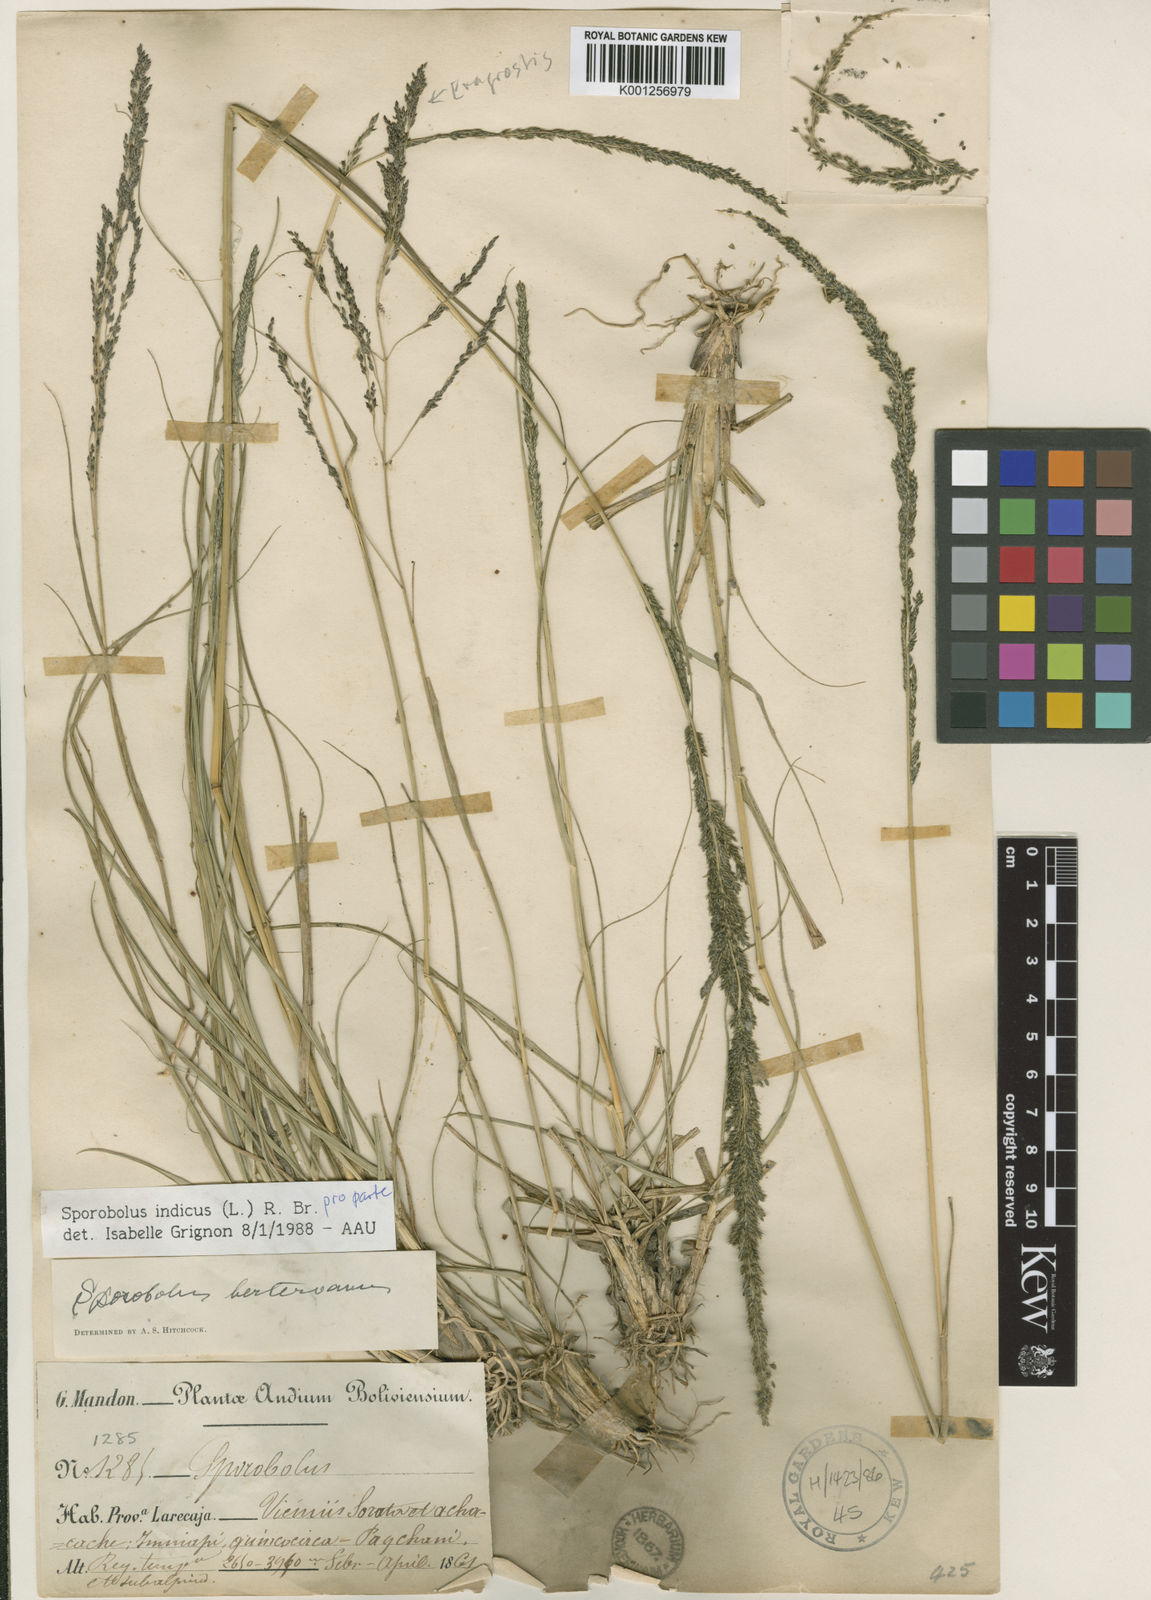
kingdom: Plantae
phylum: Tracheophyta
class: Liliopsida
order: Poales
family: Poaceae
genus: Sporobolus
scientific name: Sporobolus indicus
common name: Smut grass
